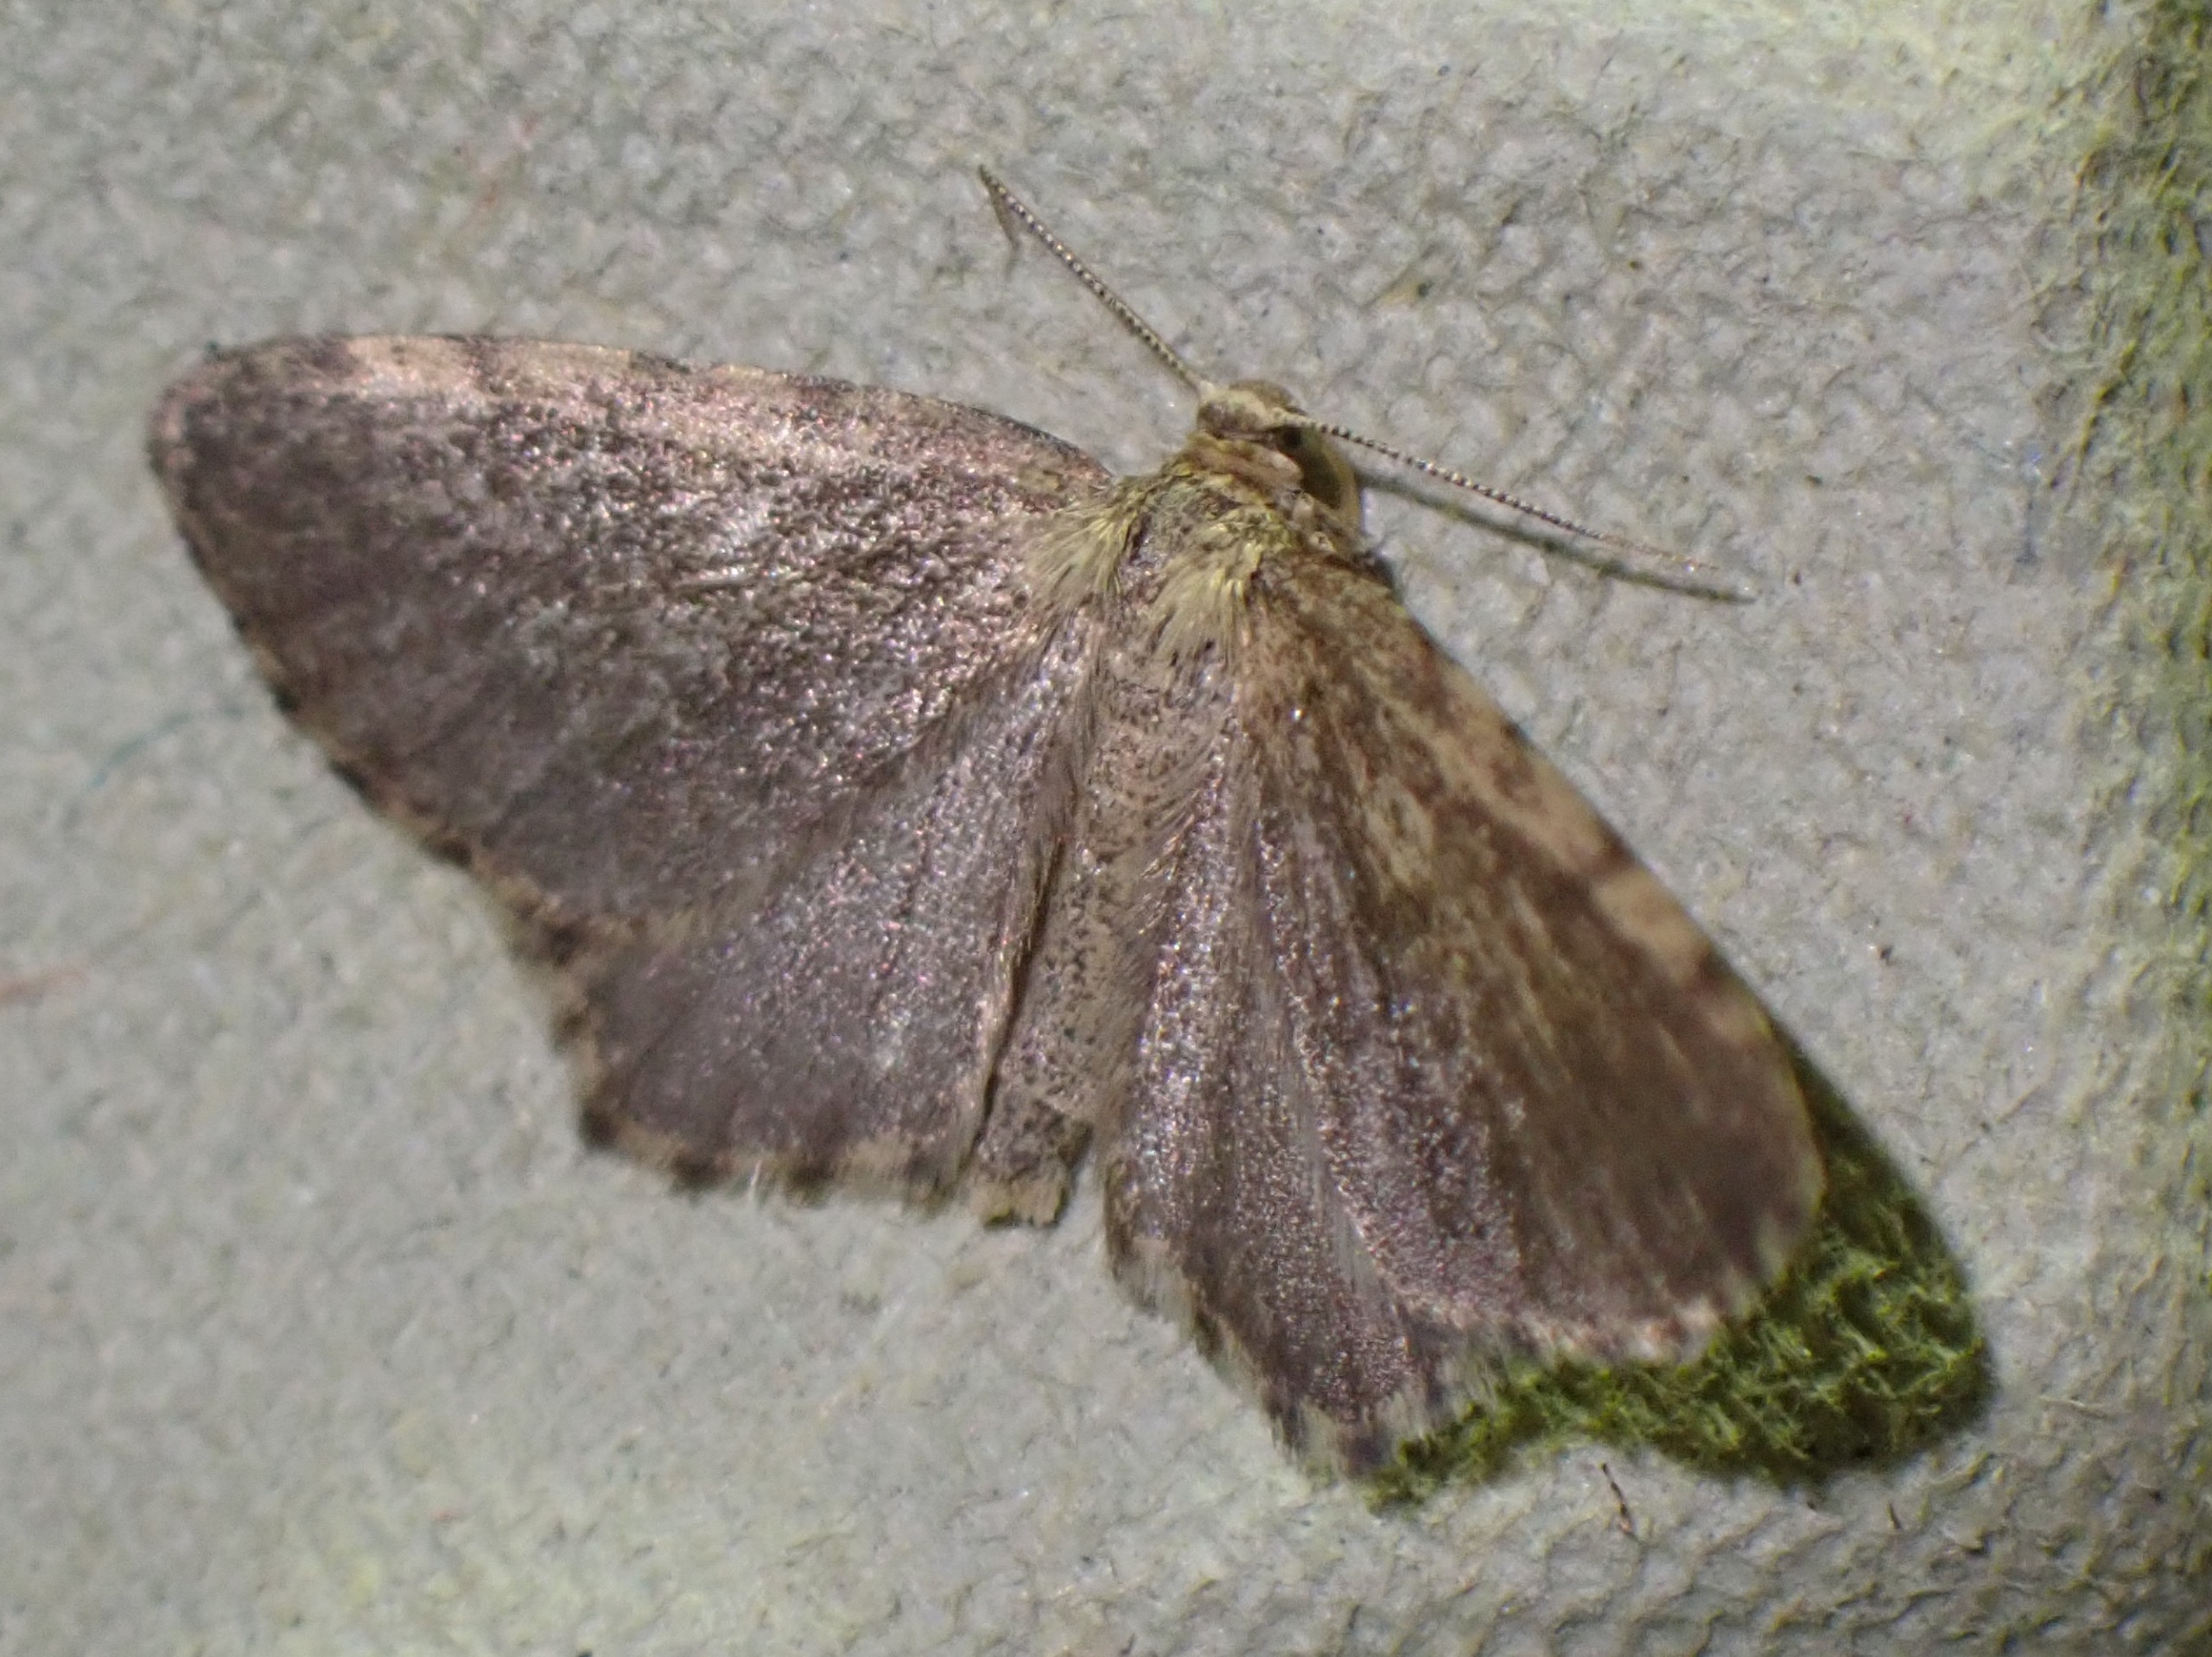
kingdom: Animalia
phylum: Arthropoda
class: Insecta
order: Lepidoptera
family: Geometridae
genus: Euchoeca
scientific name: Euchoeca nebulata
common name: Lille kratmåler
